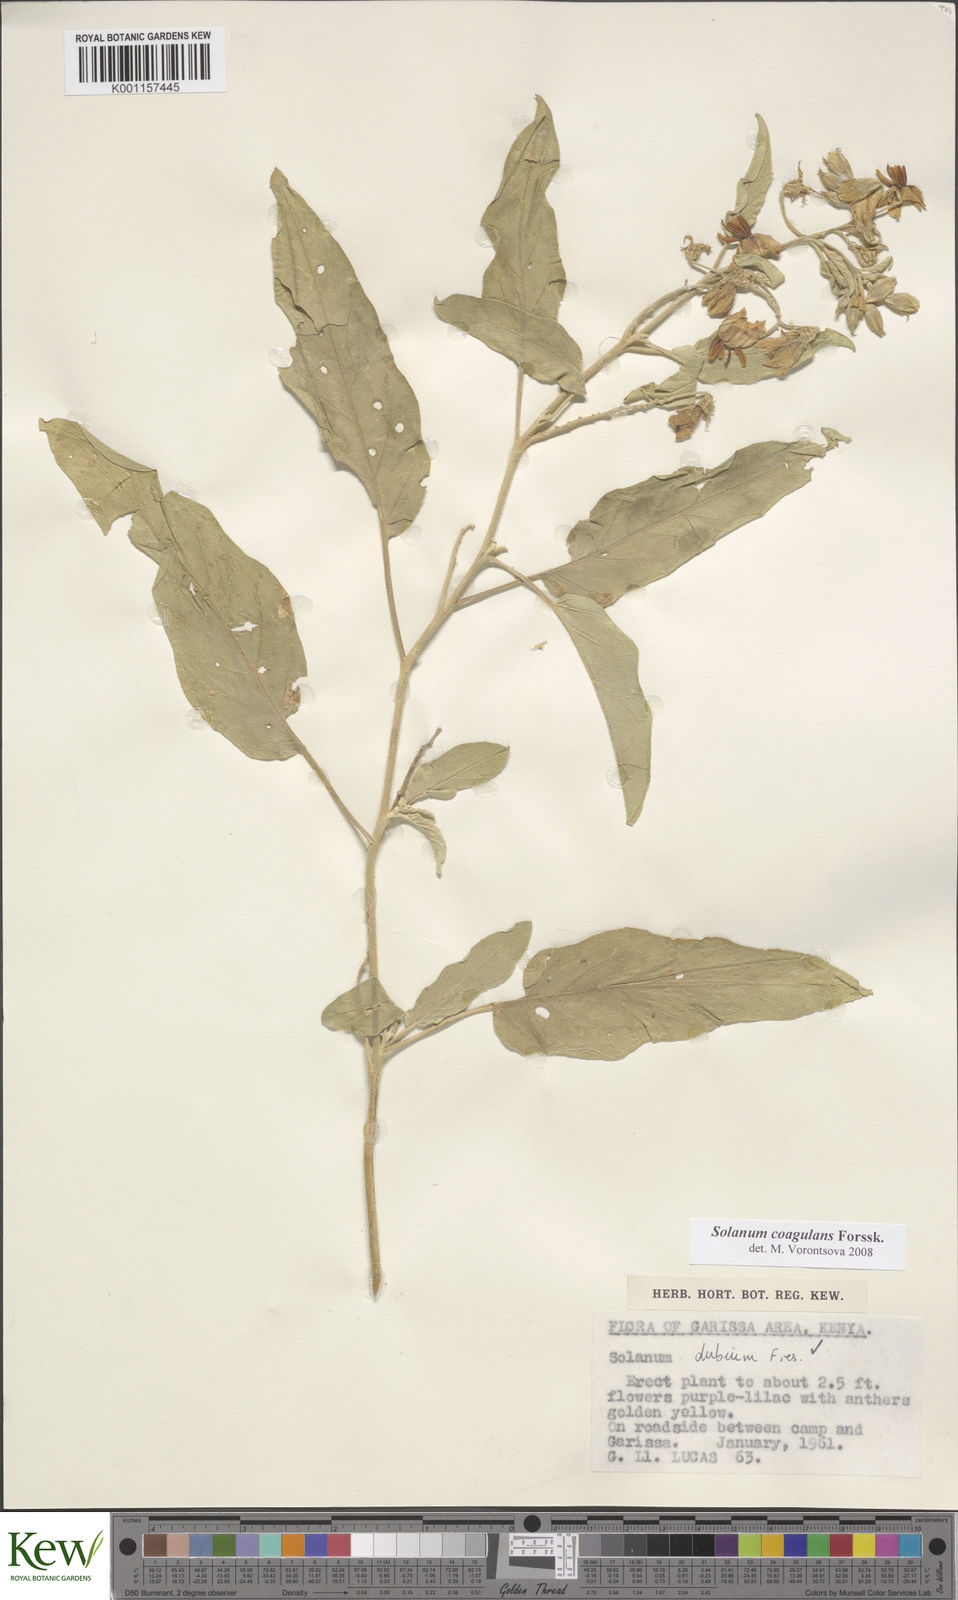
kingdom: Plantae
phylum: Tracheophyta
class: Magnoliopsida
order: Solanales
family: Solanaceae
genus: Solanum
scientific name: Solanum coagulans
